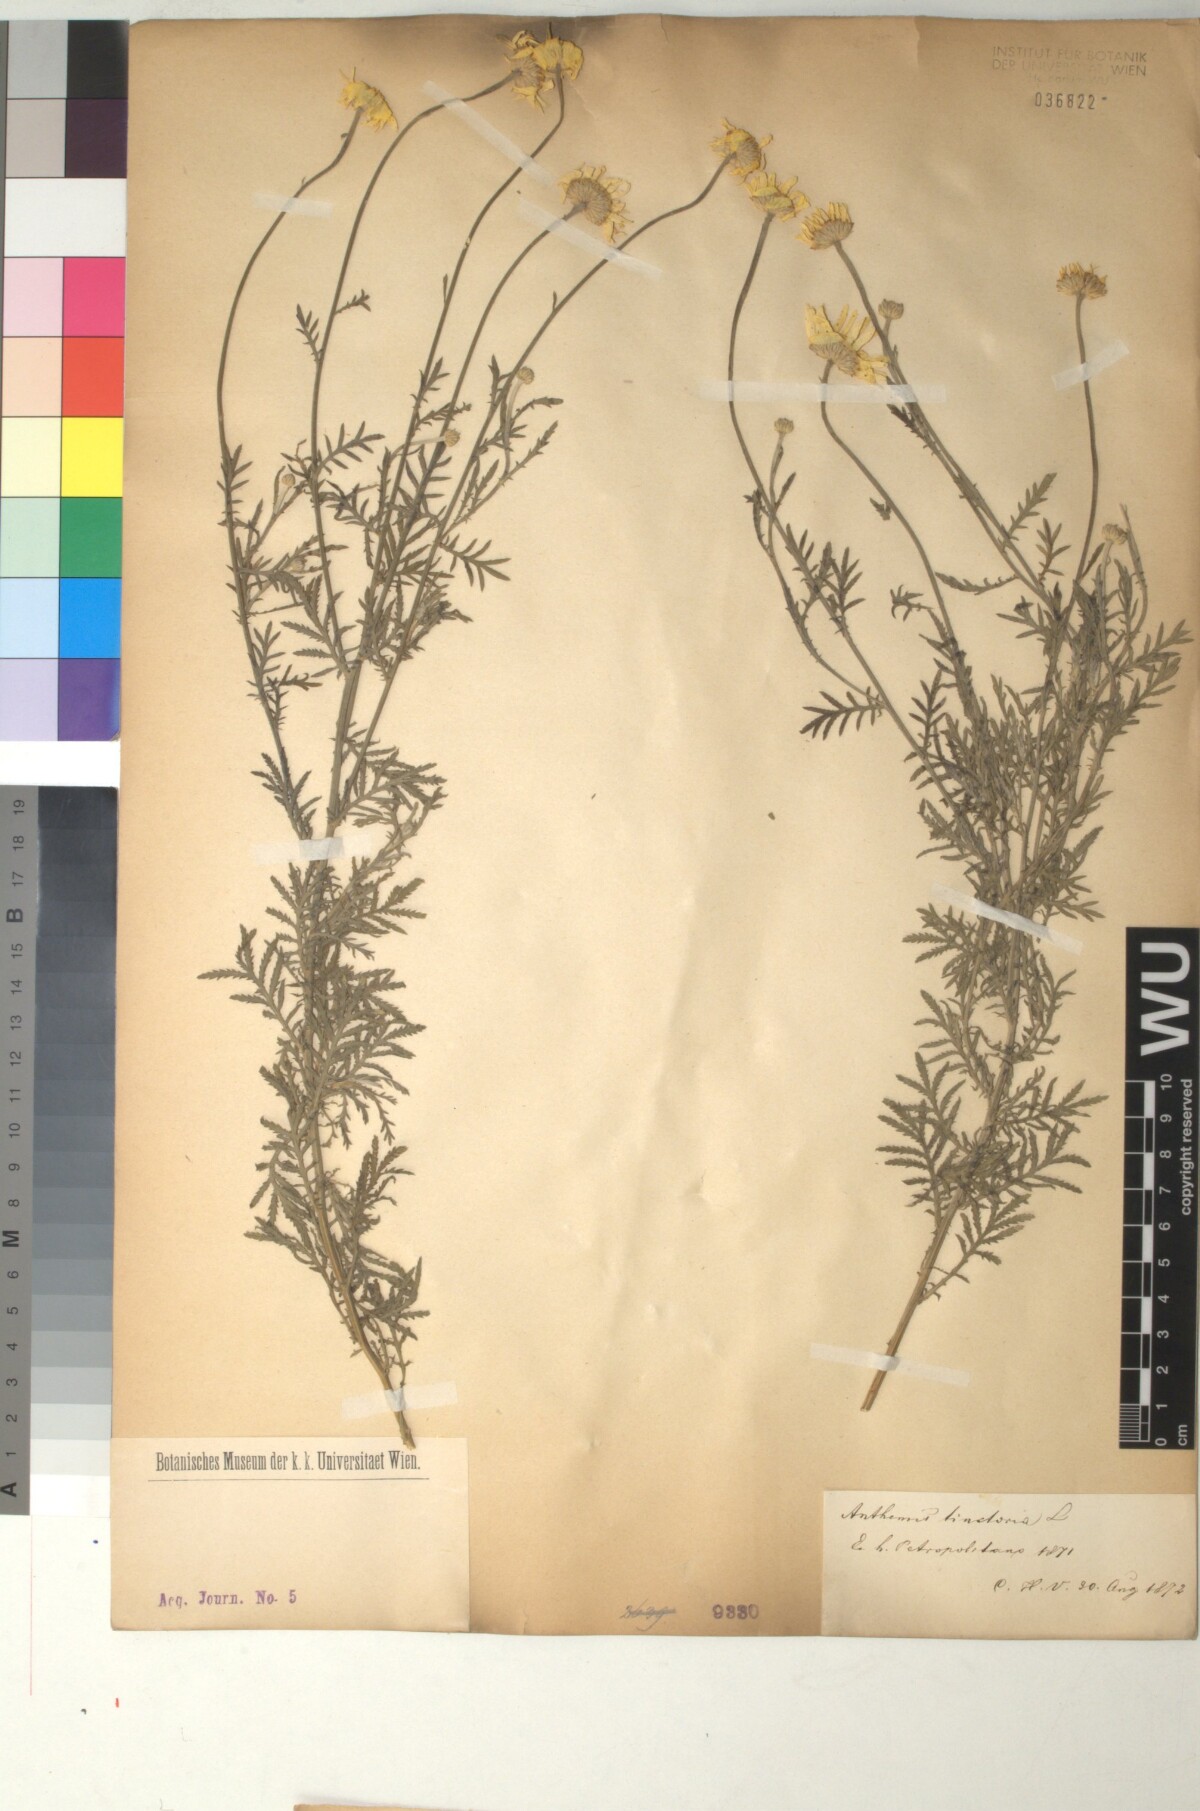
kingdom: Plantae
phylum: Tracheophyta
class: Magnoliopsida
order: Asterales
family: Asteraceae
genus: Cota
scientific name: Cota tinctoria
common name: Golden chamomile
